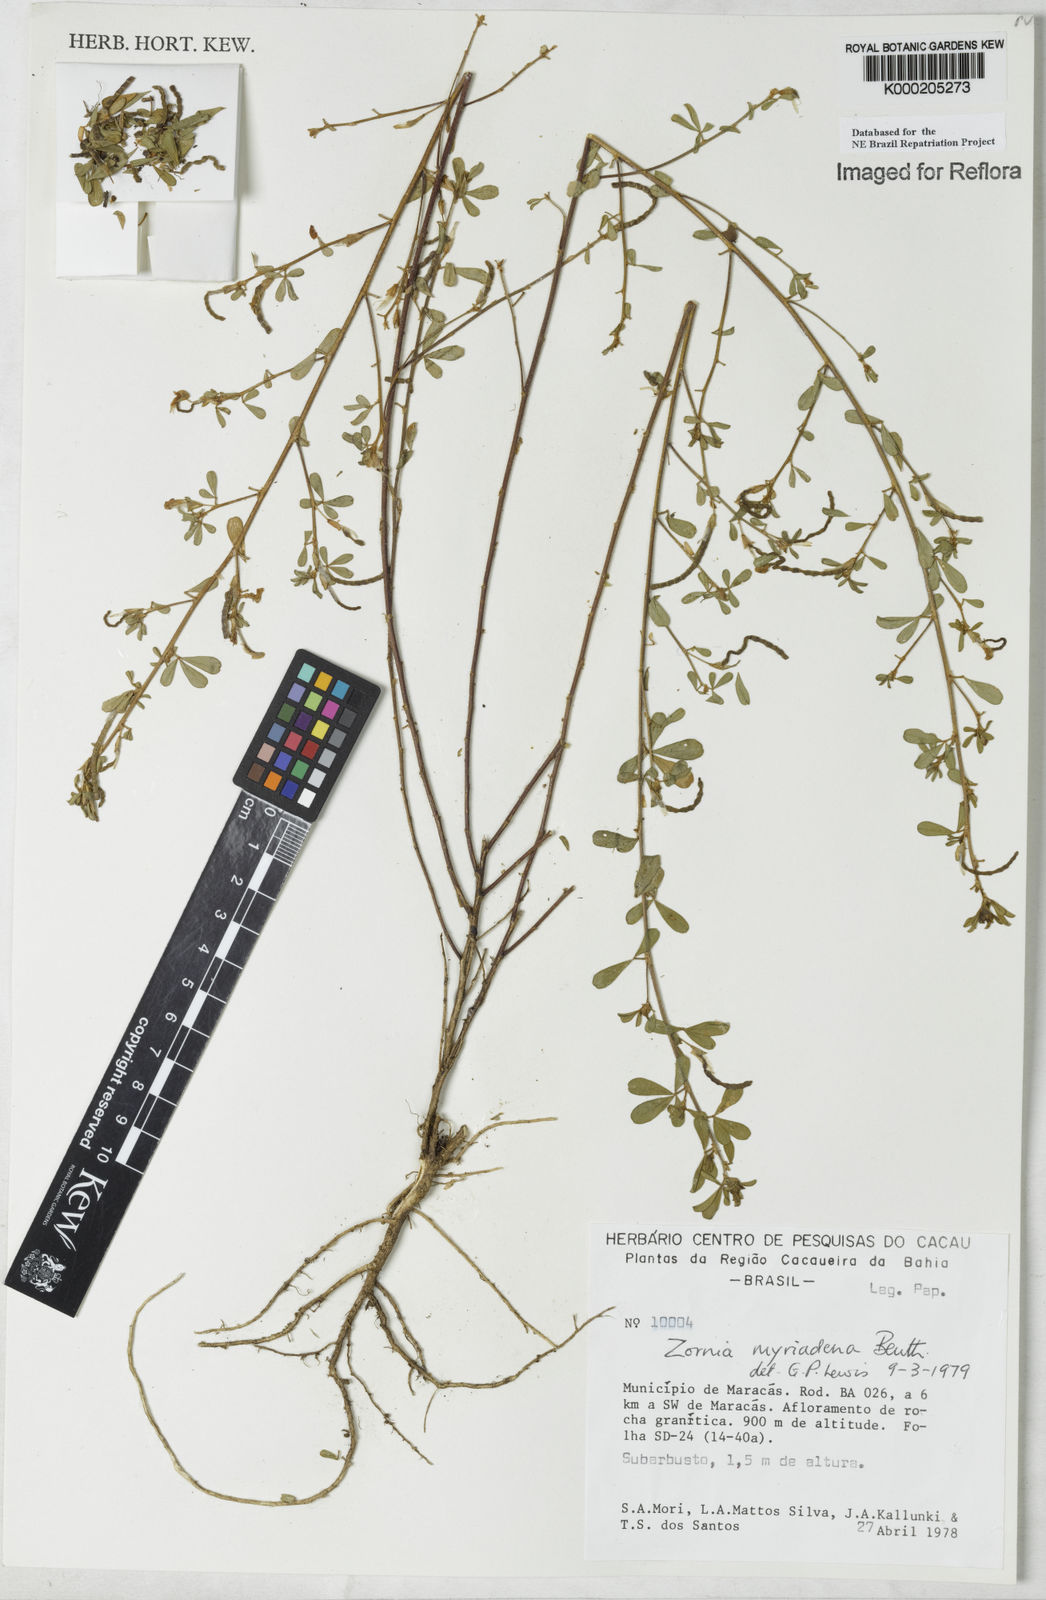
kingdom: Plantae
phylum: Tracheophyta
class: Magnoliopsida
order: Fabales
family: Fabaceae
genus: Zornia
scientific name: Zornia myriadena
